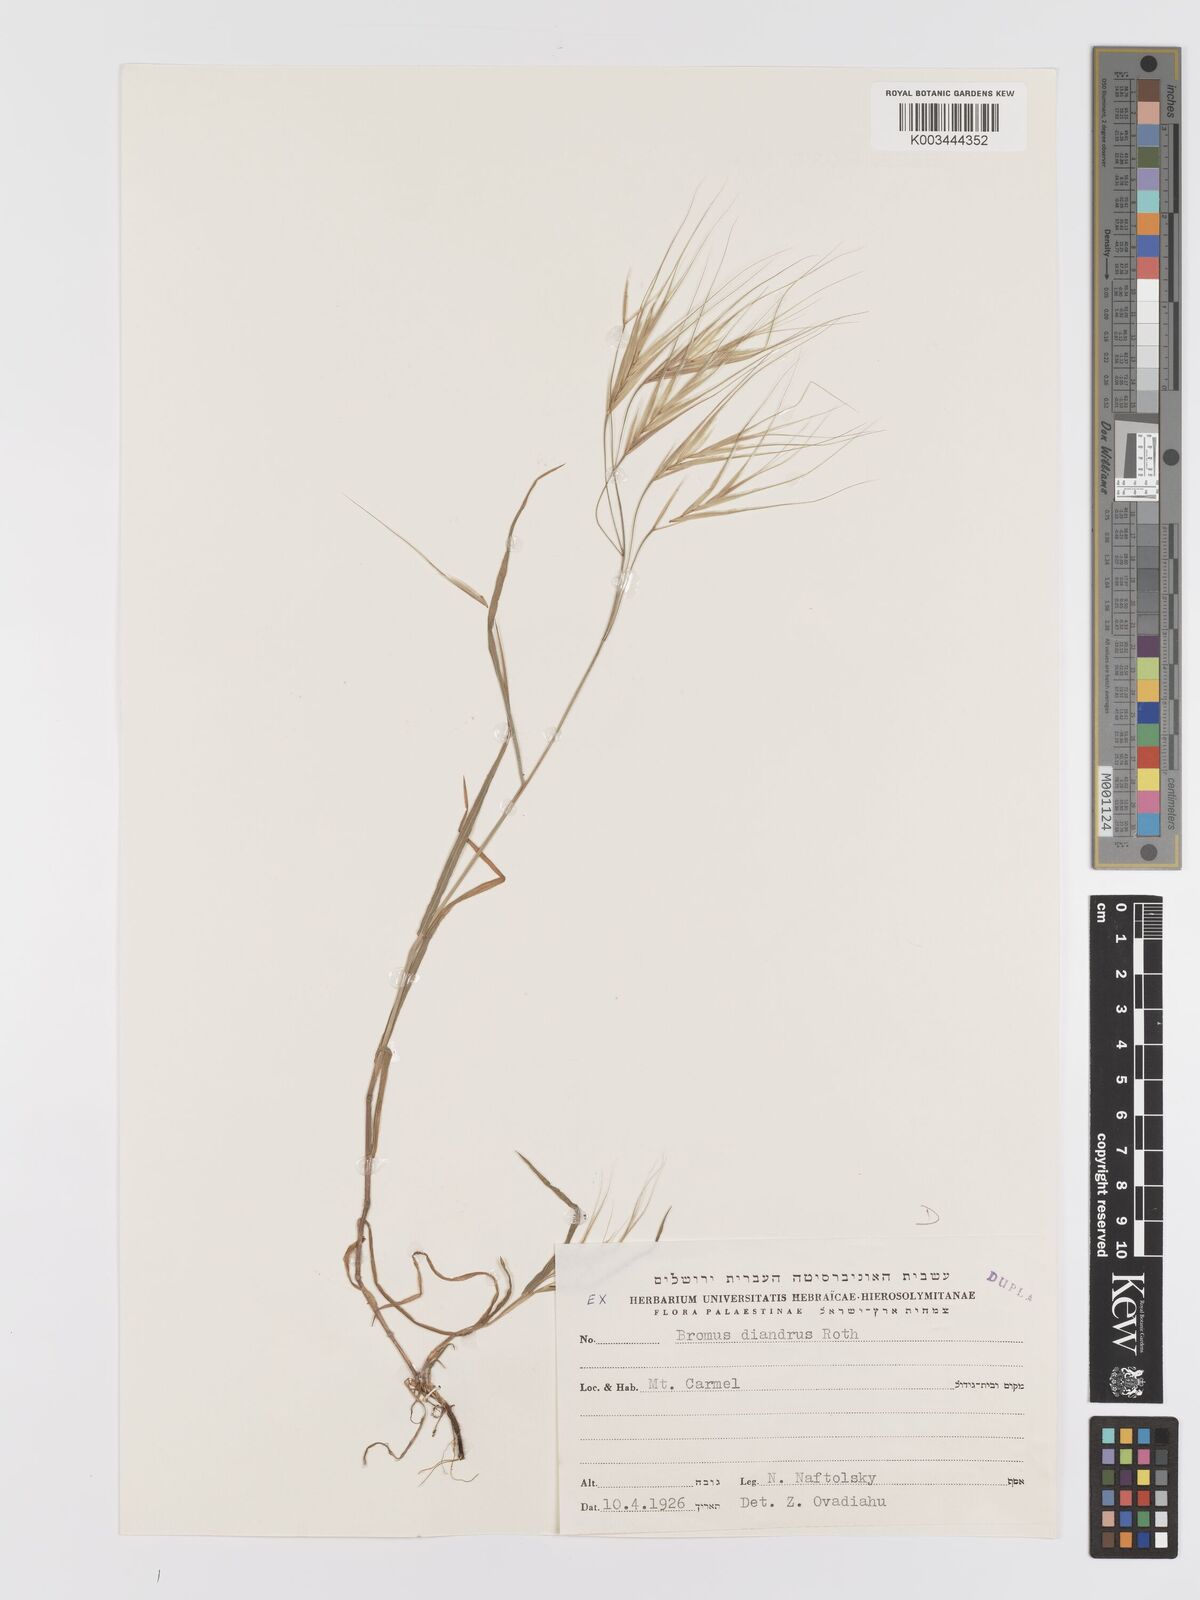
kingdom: Plantae
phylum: Tracheophyta
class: Liliopsida
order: Poales
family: Poaceae
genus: Bromus
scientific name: Bromus diandrus
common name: Ripgut brome
